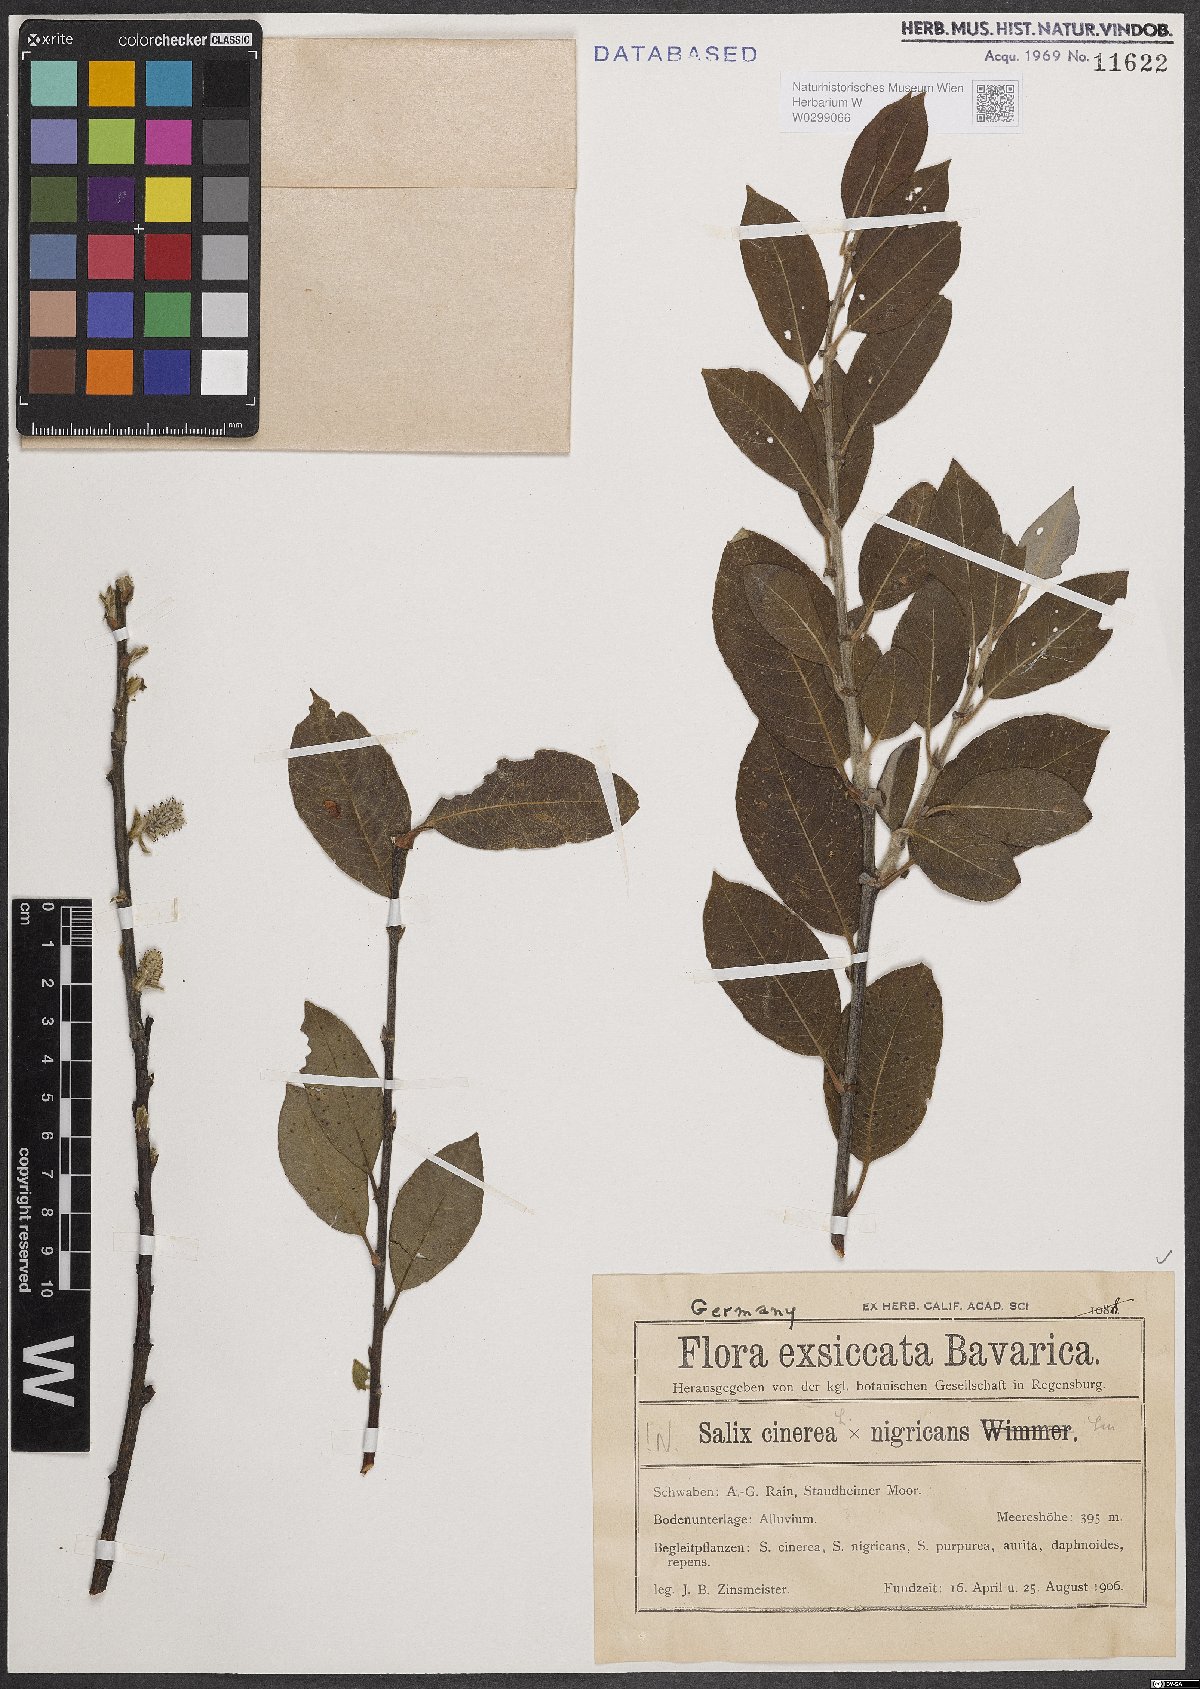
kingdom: Plantae
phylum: Tracheophyta
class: Magnoliopsida
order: Malpighiales
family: Salicaceae
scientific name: Salicaceae
